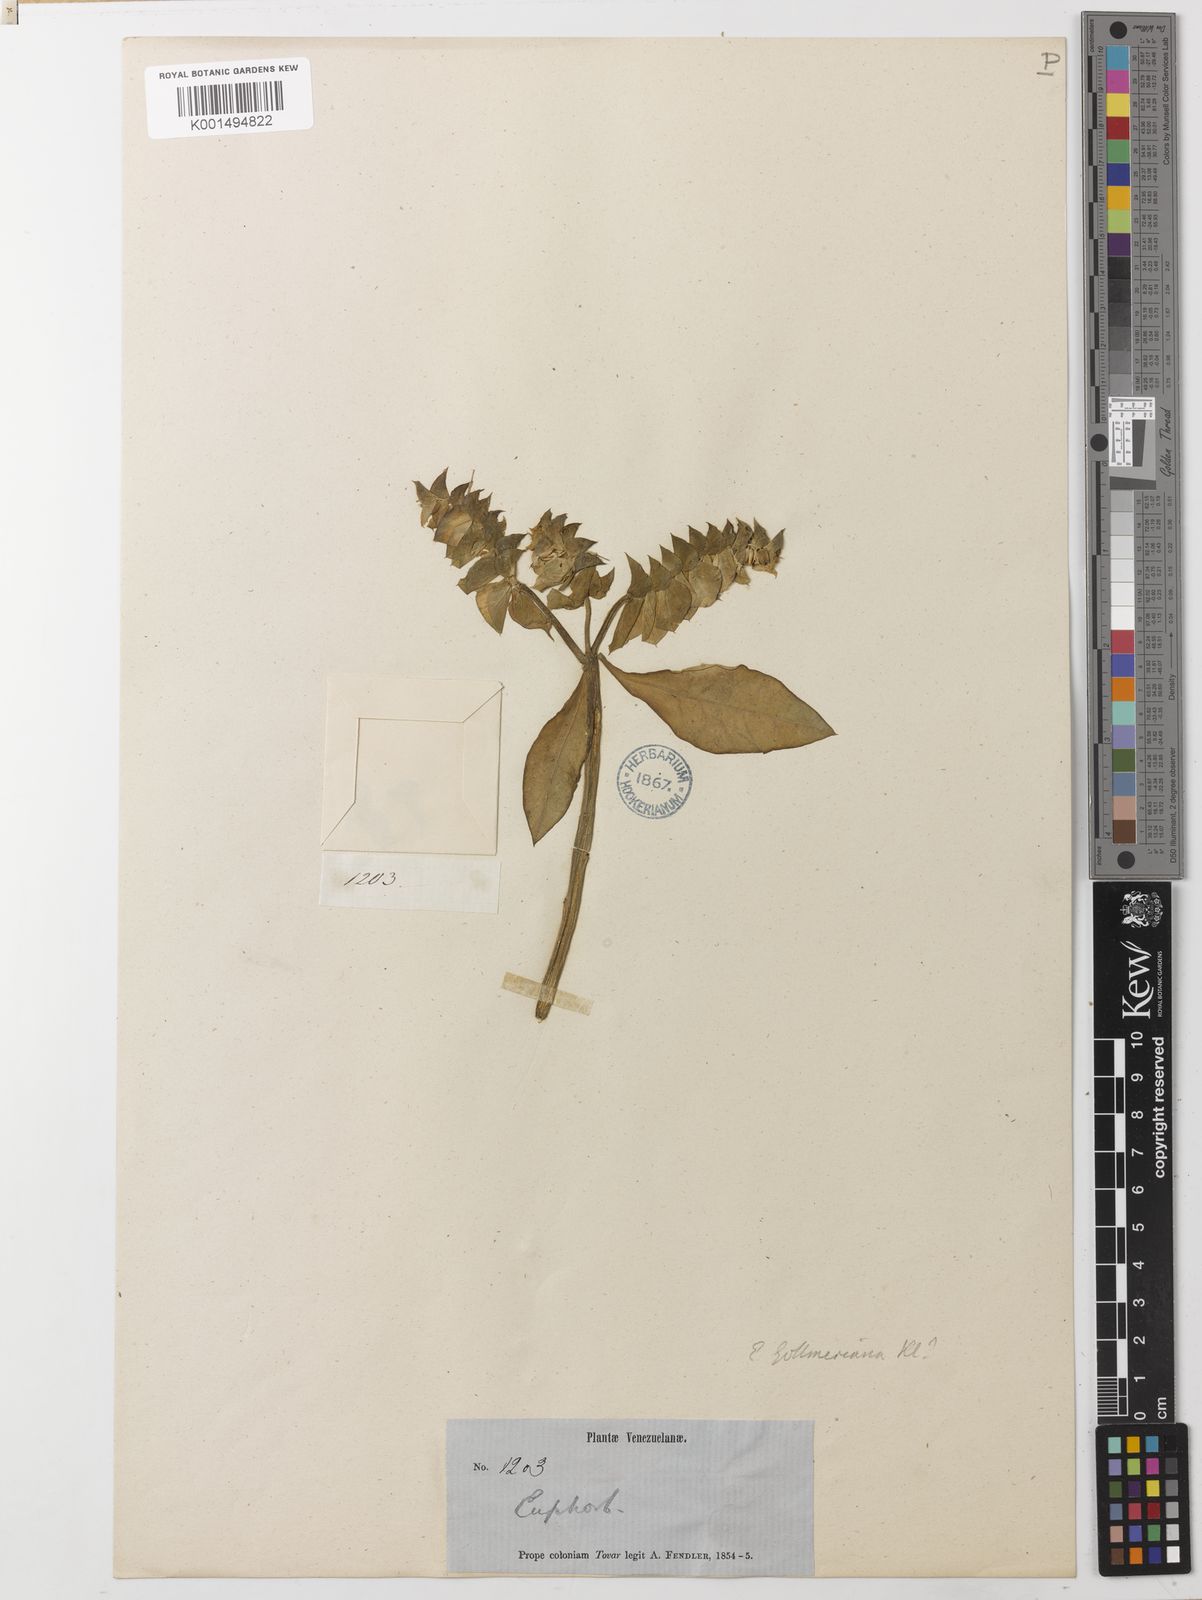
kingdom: Plantae
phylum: Tracheophyta
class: Magnoliopsida
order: Malpighiales
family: Euphorbiaceae
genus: Euphorbia
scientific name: Euphorbia gollmeriana
